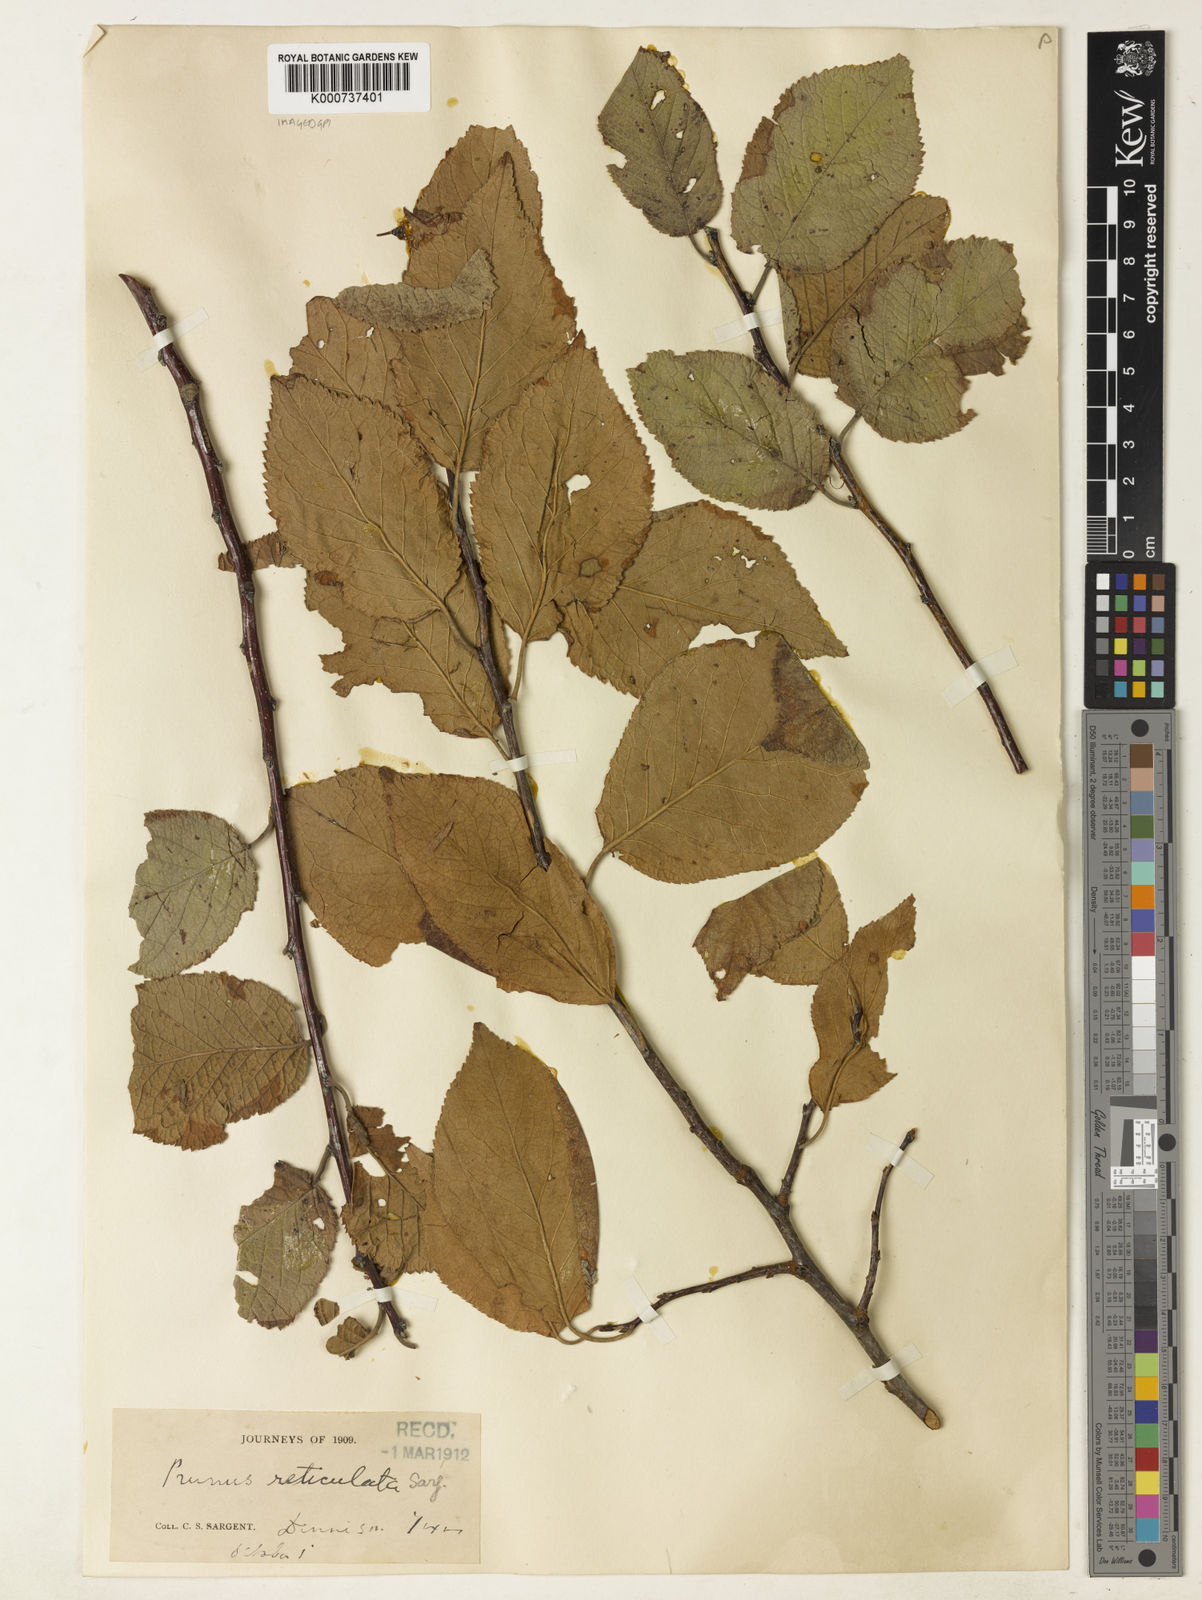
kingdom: Plantae
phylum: Tracheophyta
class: Magnoliopsida
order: Rosales
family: Rosaceae
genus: Prunus
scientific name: Prunus mexicana
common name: Mexican plum
